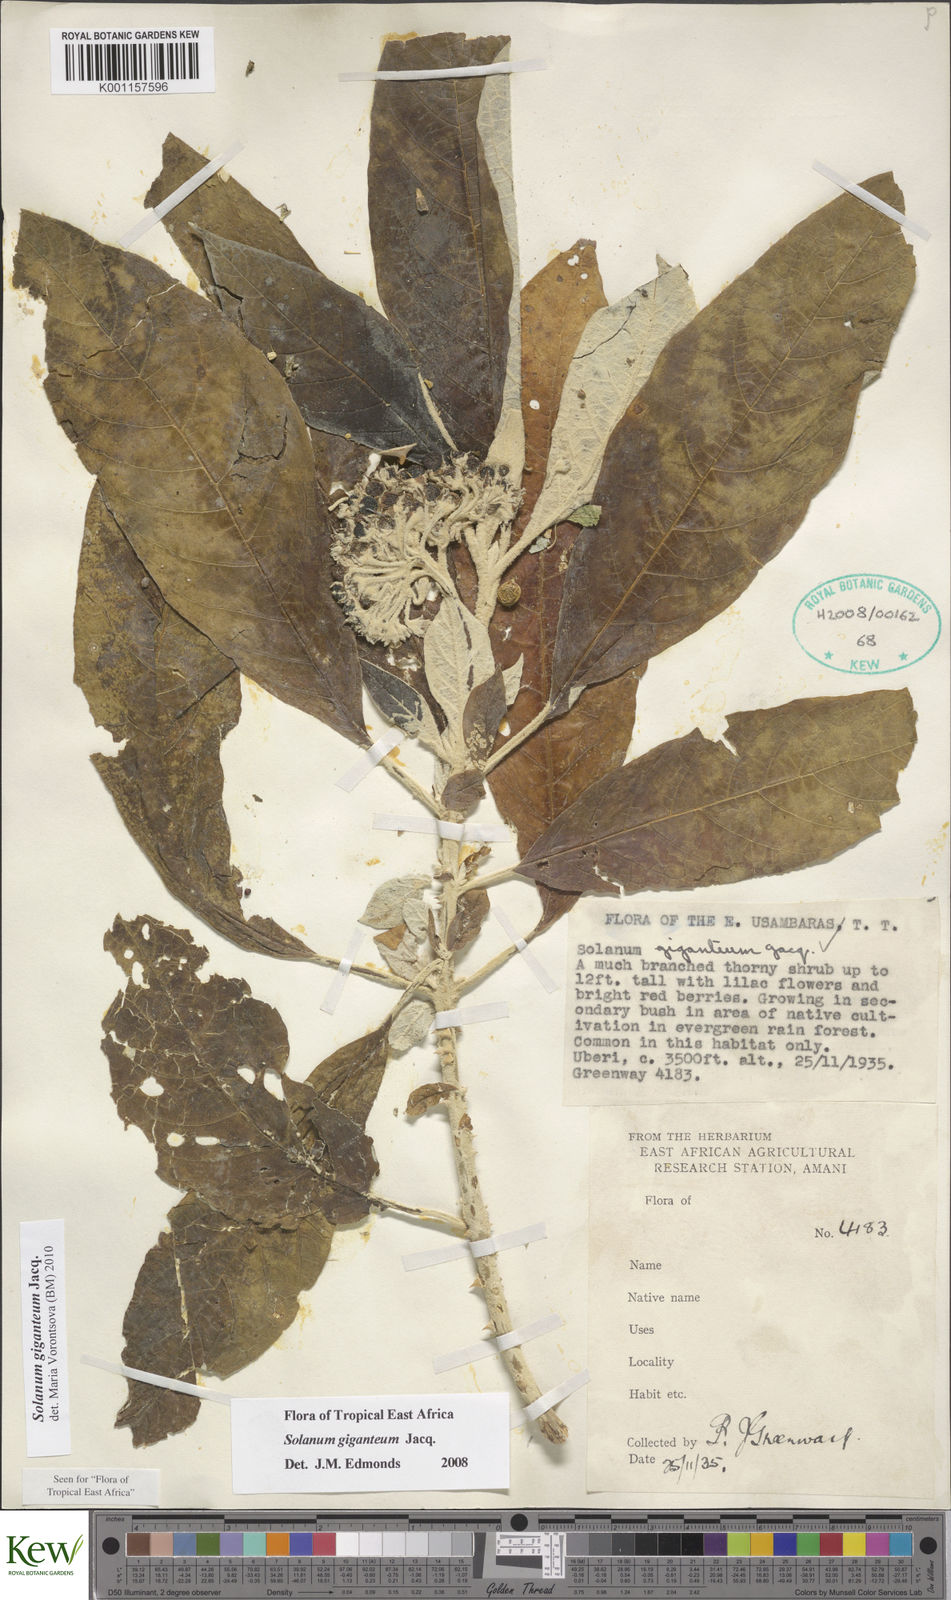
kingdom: Plantae
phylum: Tracheophyta
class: Magnoliopsida
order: Solanales
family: Solanaceae
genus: Solanum
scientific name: Solanum giganteum
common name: Healing-leaf-tree
